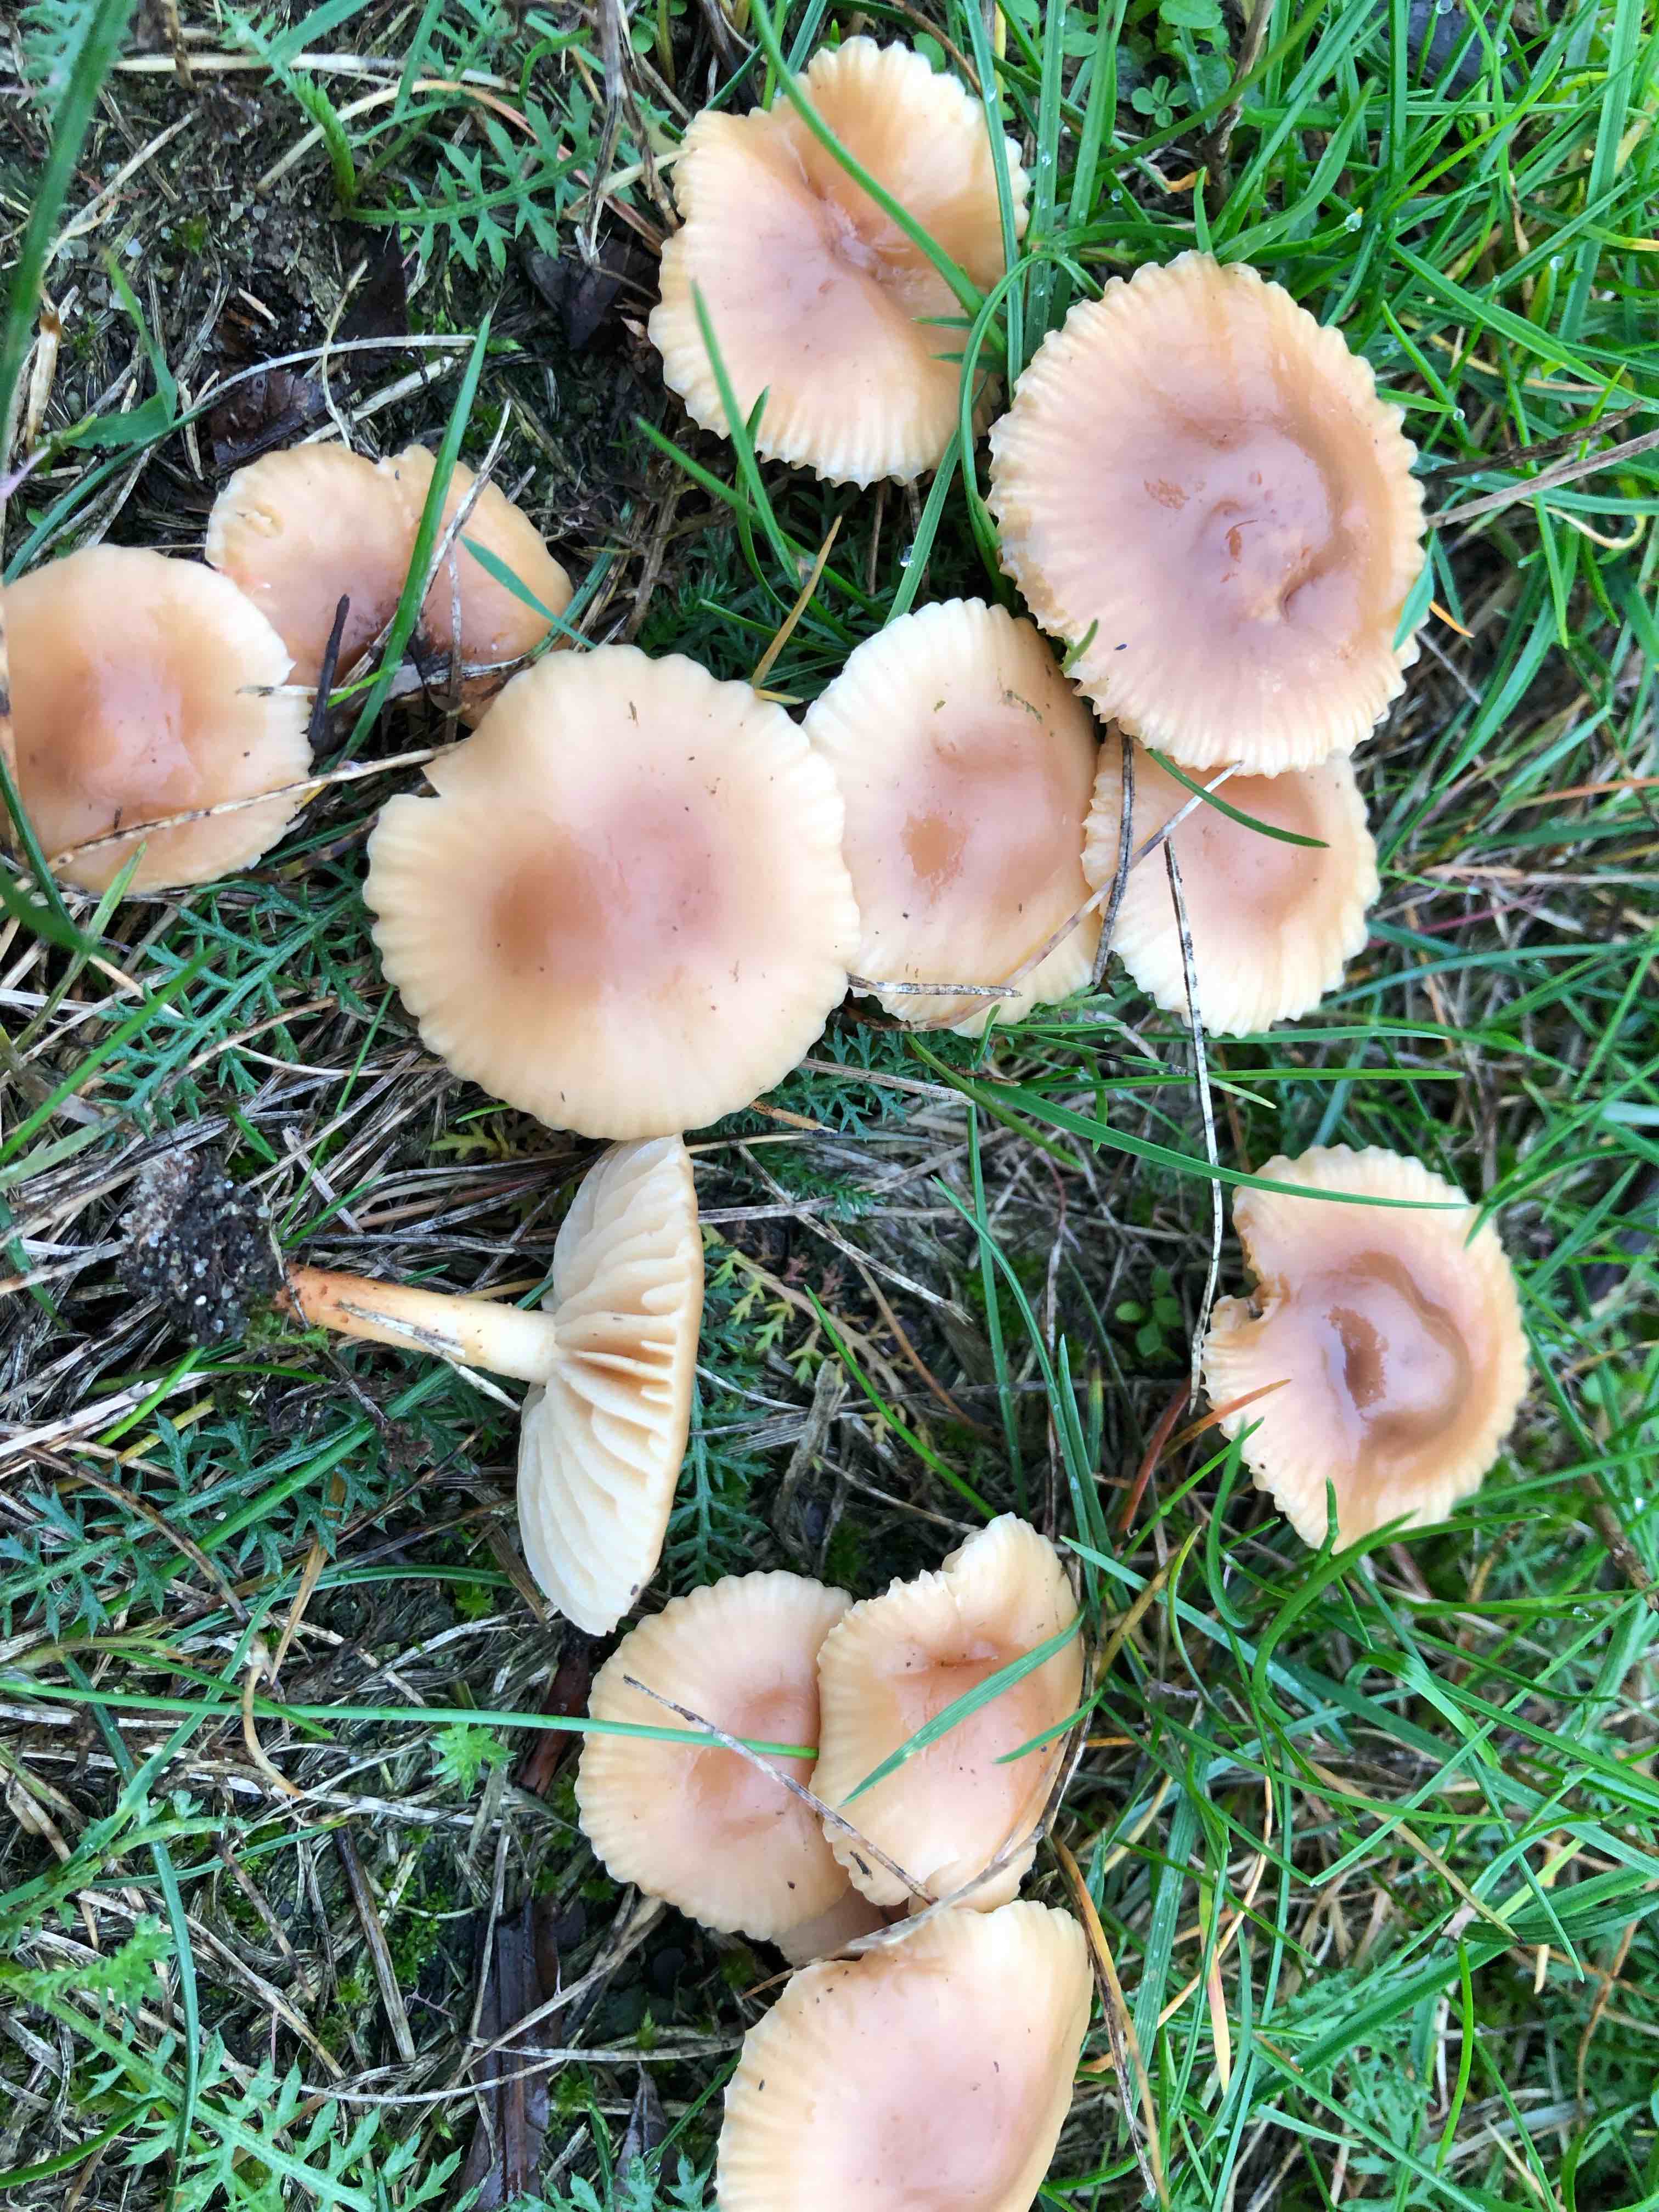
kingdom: Fungi
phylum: Basidiomycota
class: Agaricomycetes
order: Agaricales
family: Marasmiaceae
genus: Marasmius
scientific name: Marasmius oreades
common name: elledans-bruskhat
